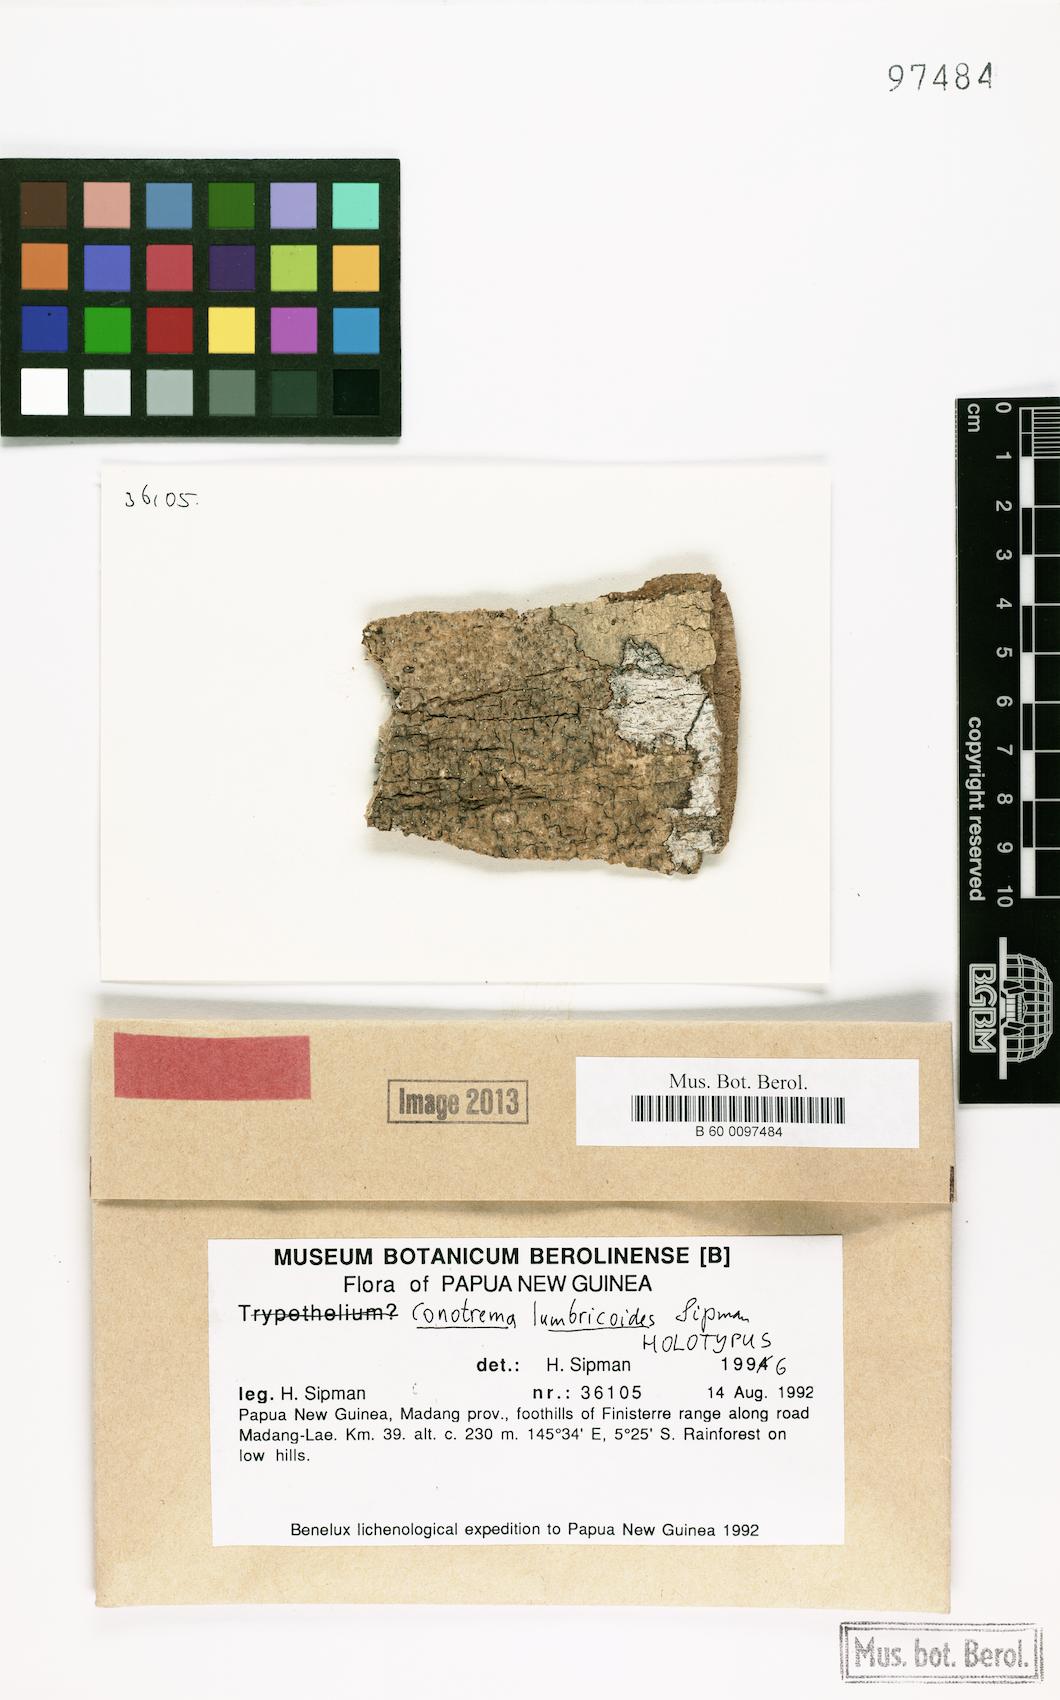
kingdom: Fungi
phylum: Ascomycota
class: Lecanoromycetes
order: Ostropales
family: Stictidaceae
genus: Trinathotrema
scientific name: Trinathotrema lumbricoides
